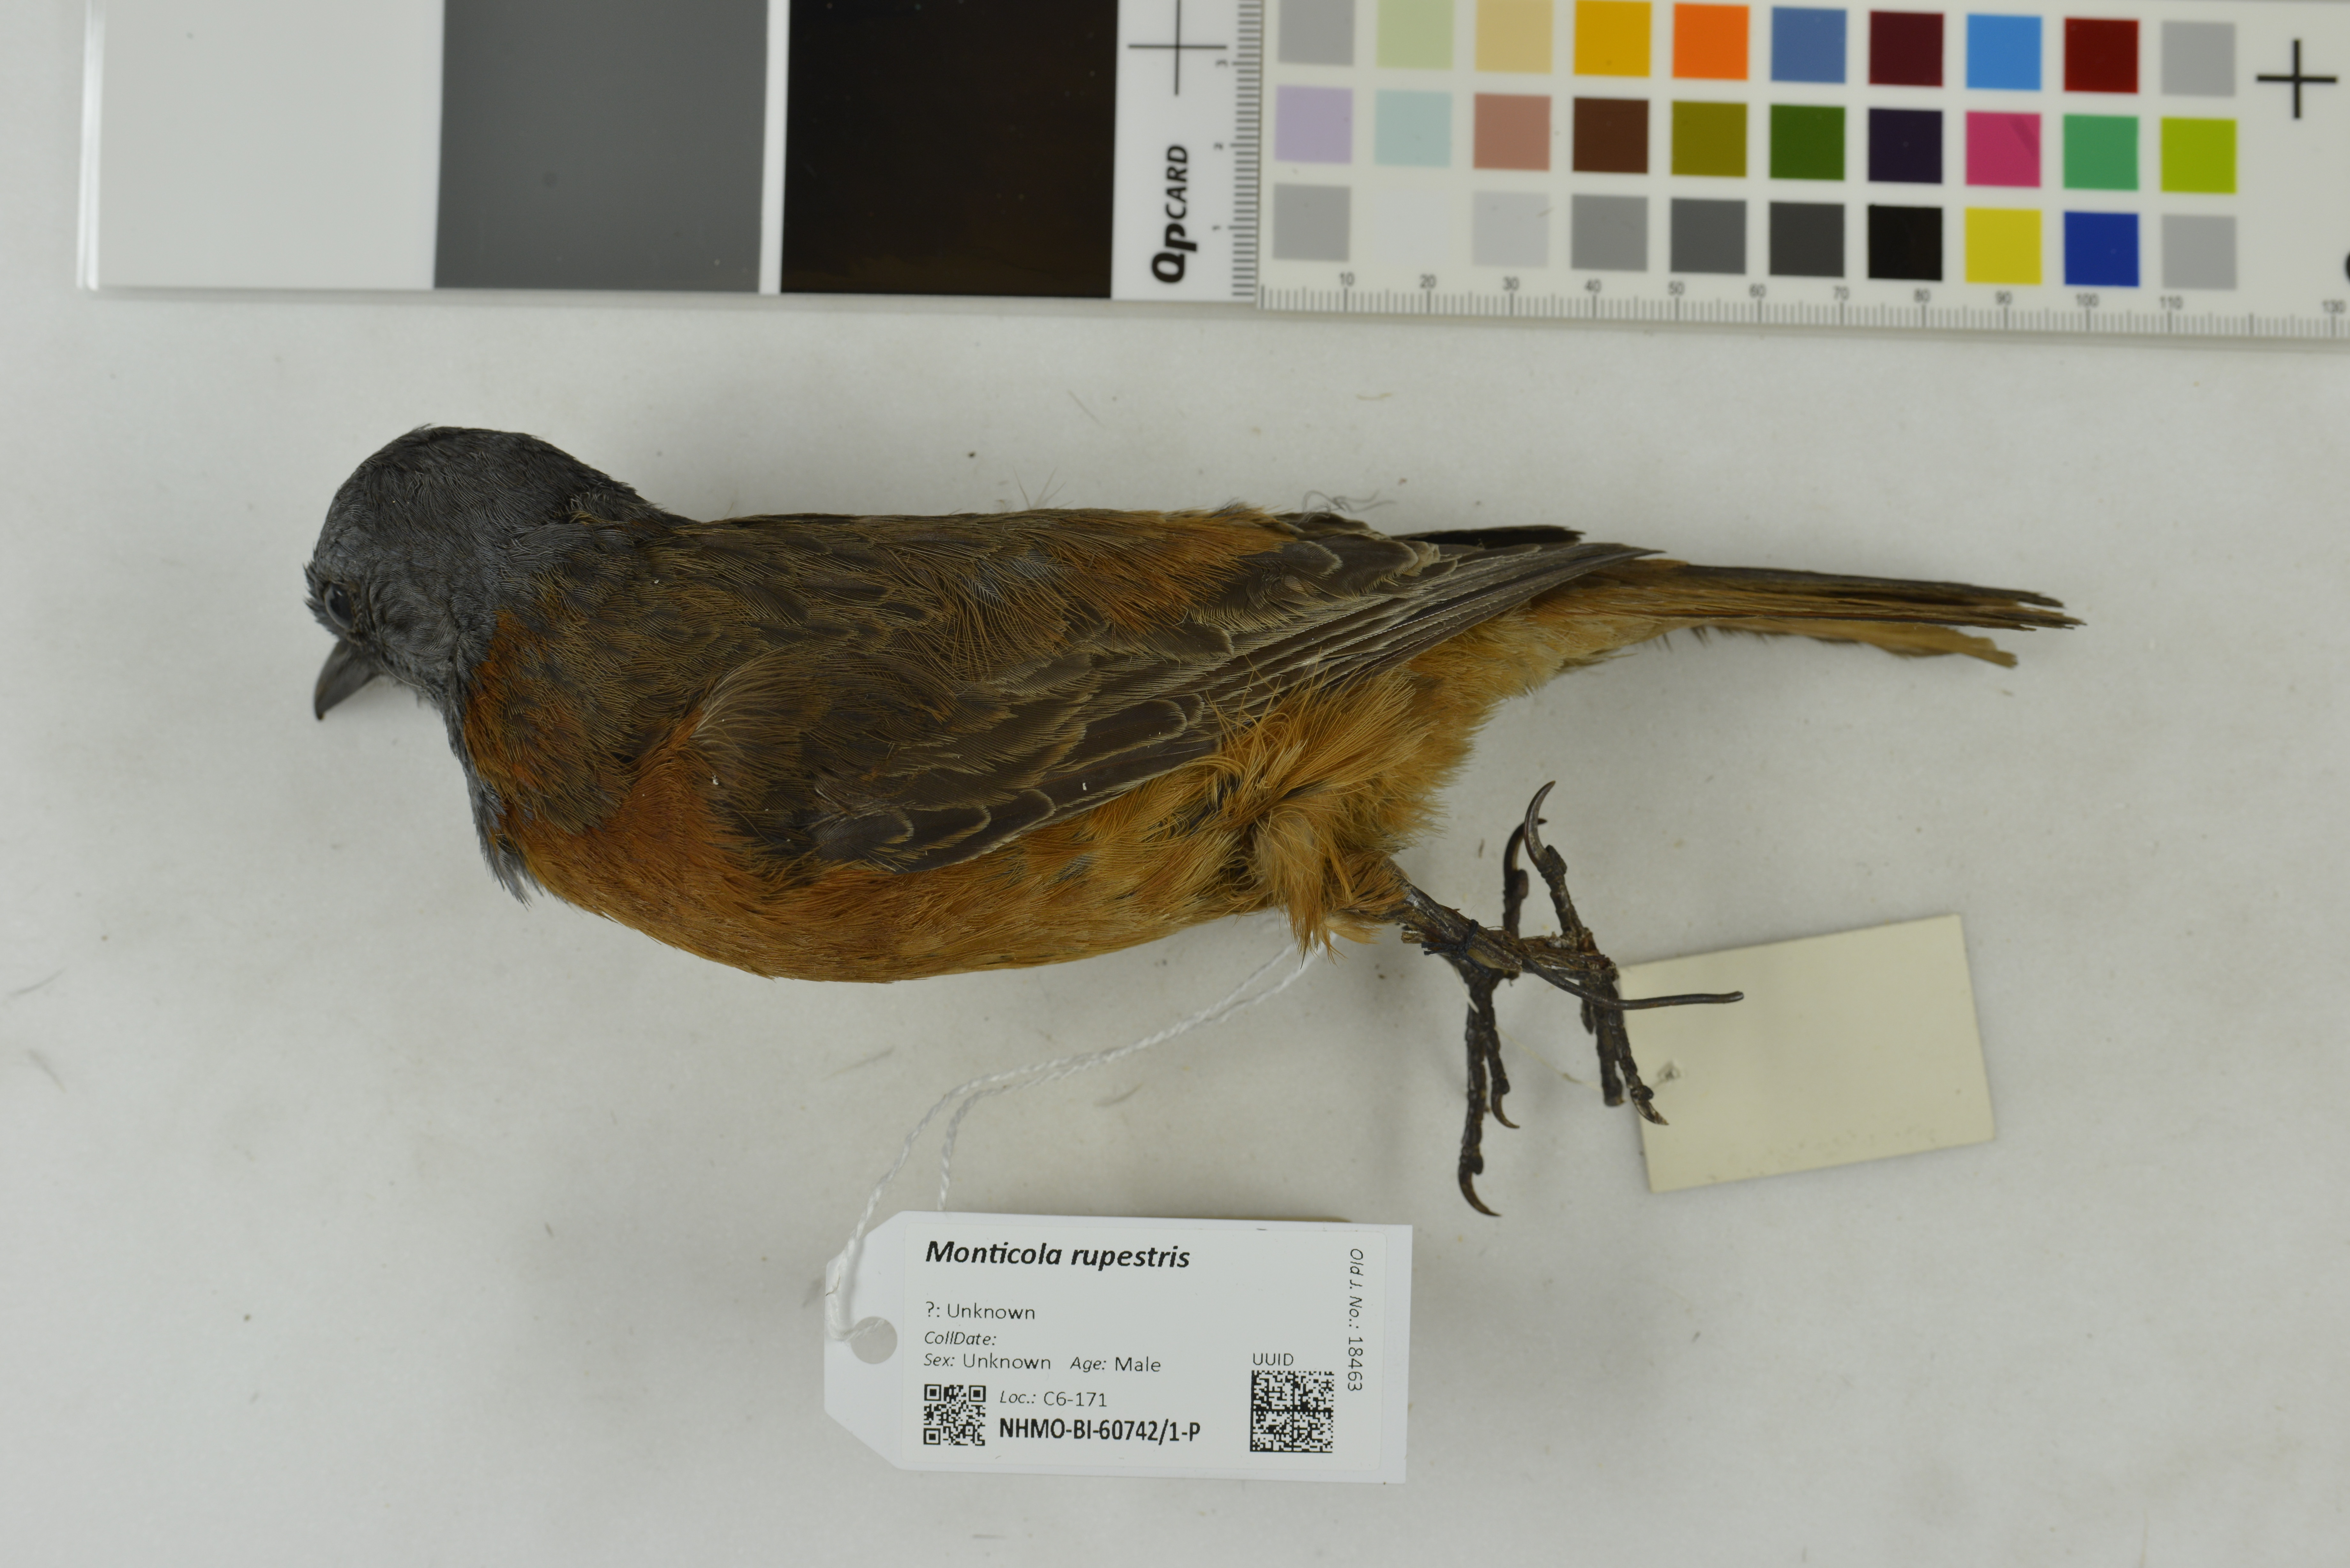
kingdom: Animalia
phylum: Chordata
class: Aves
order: Passeriformes
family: Muscicapidae
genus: Monticola
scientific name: Monticola rupestris
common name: Cape rock thrush
